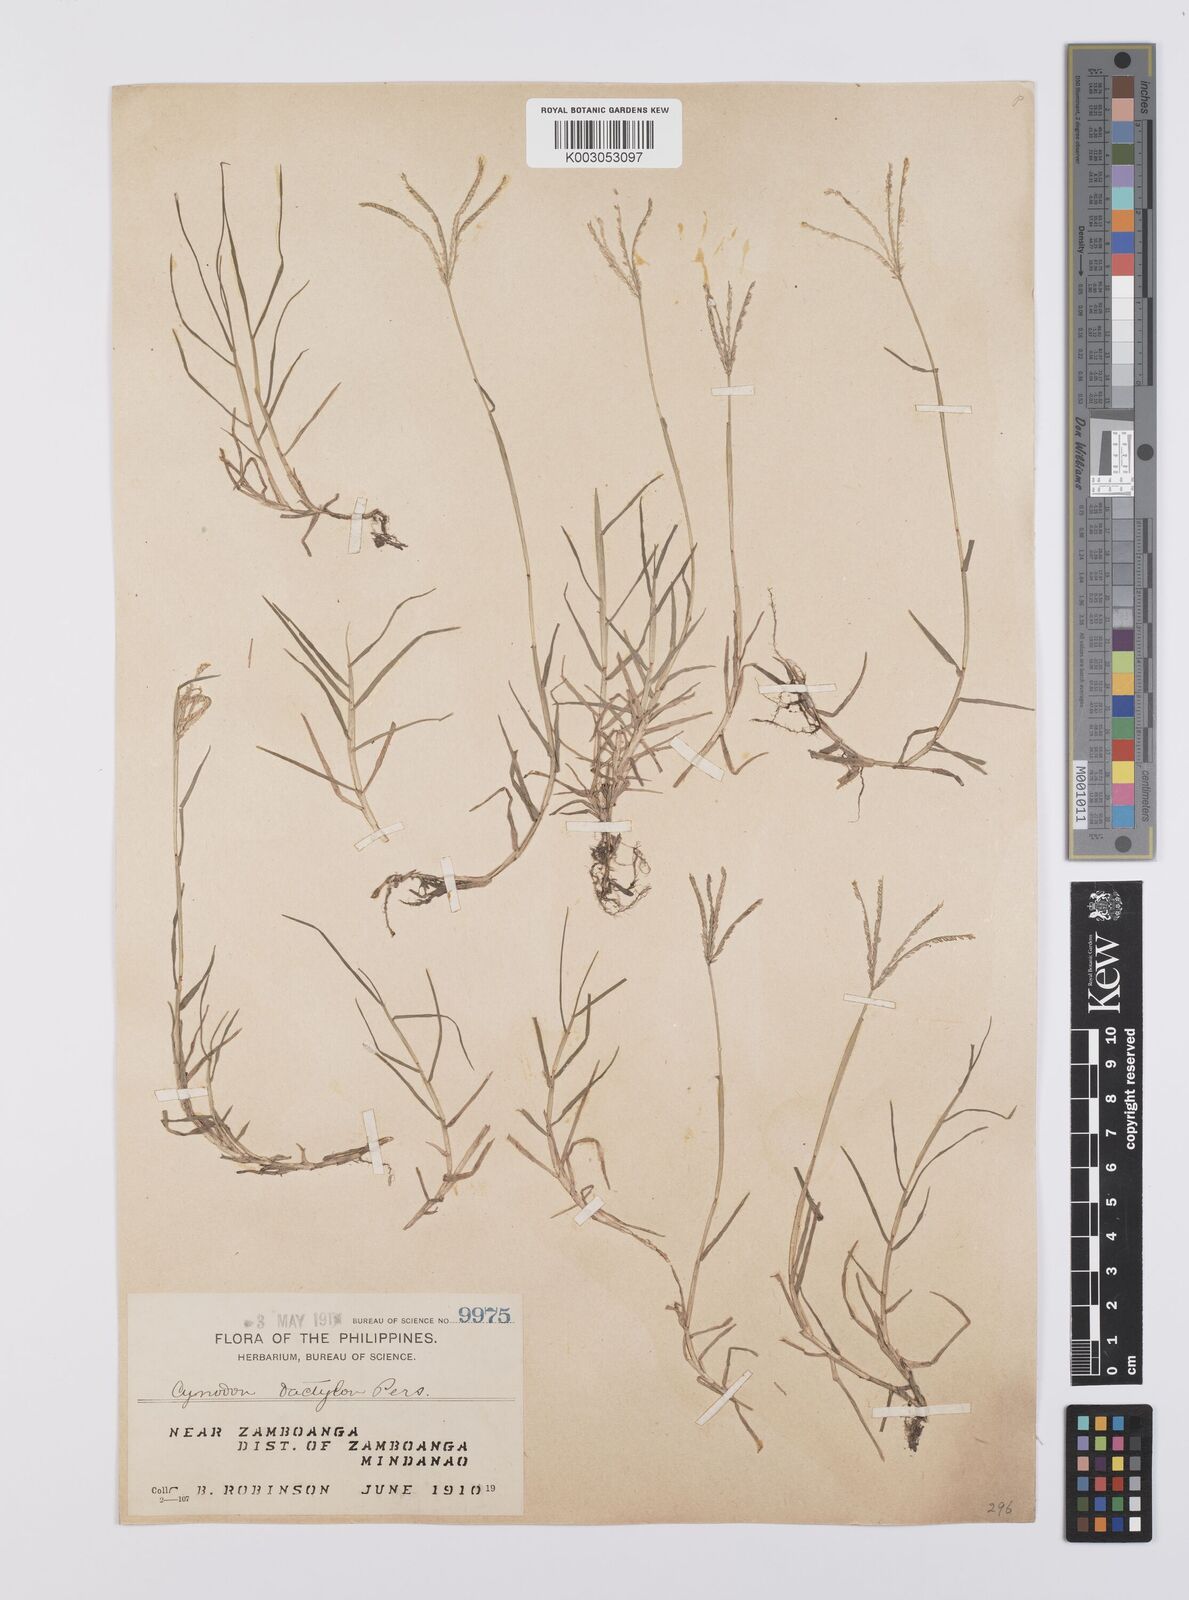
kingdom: Plantae
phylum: Tracheophyta
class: Liliopsida
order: Poales
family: Poaceae
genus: Cynodon
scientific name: Cynodon dactylon
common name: Bermuda grass
